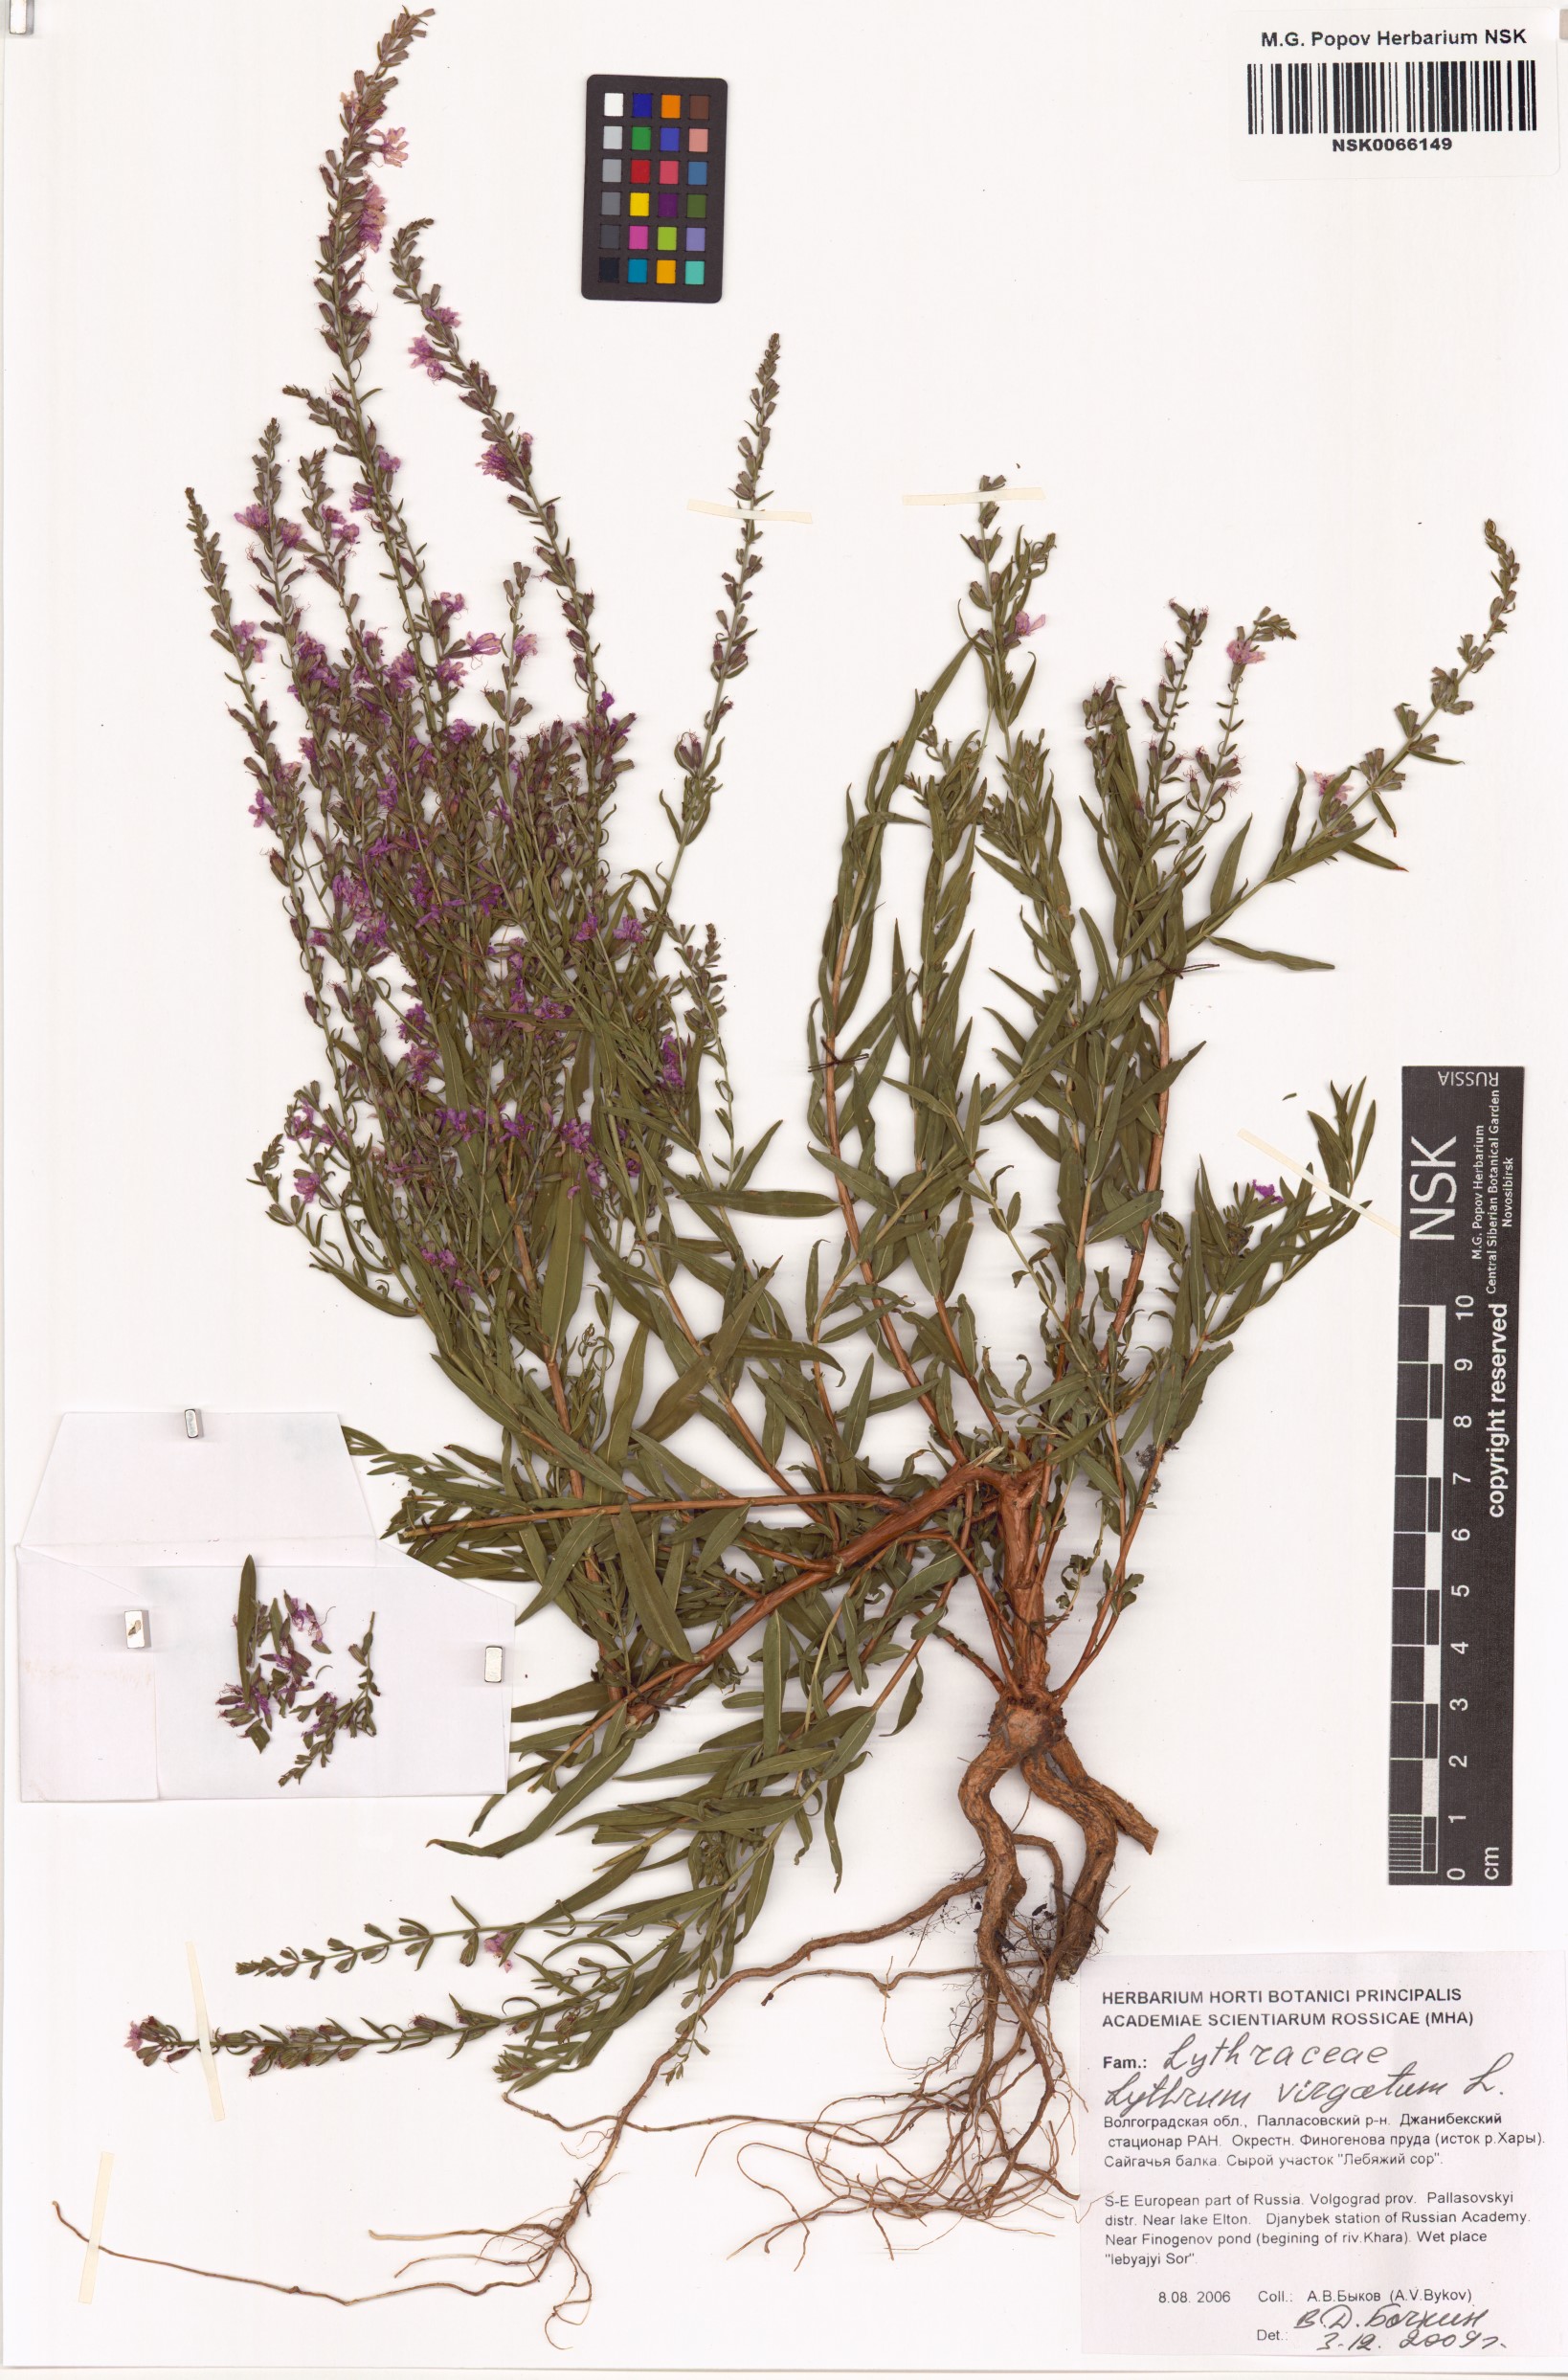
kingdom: Plantae
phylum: Tracheophyta
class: Magnoliopsida
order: Myrtales
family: Lythraceae
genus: Lythrum
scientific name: Lythrum virgatum
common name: European wand loosestrife
